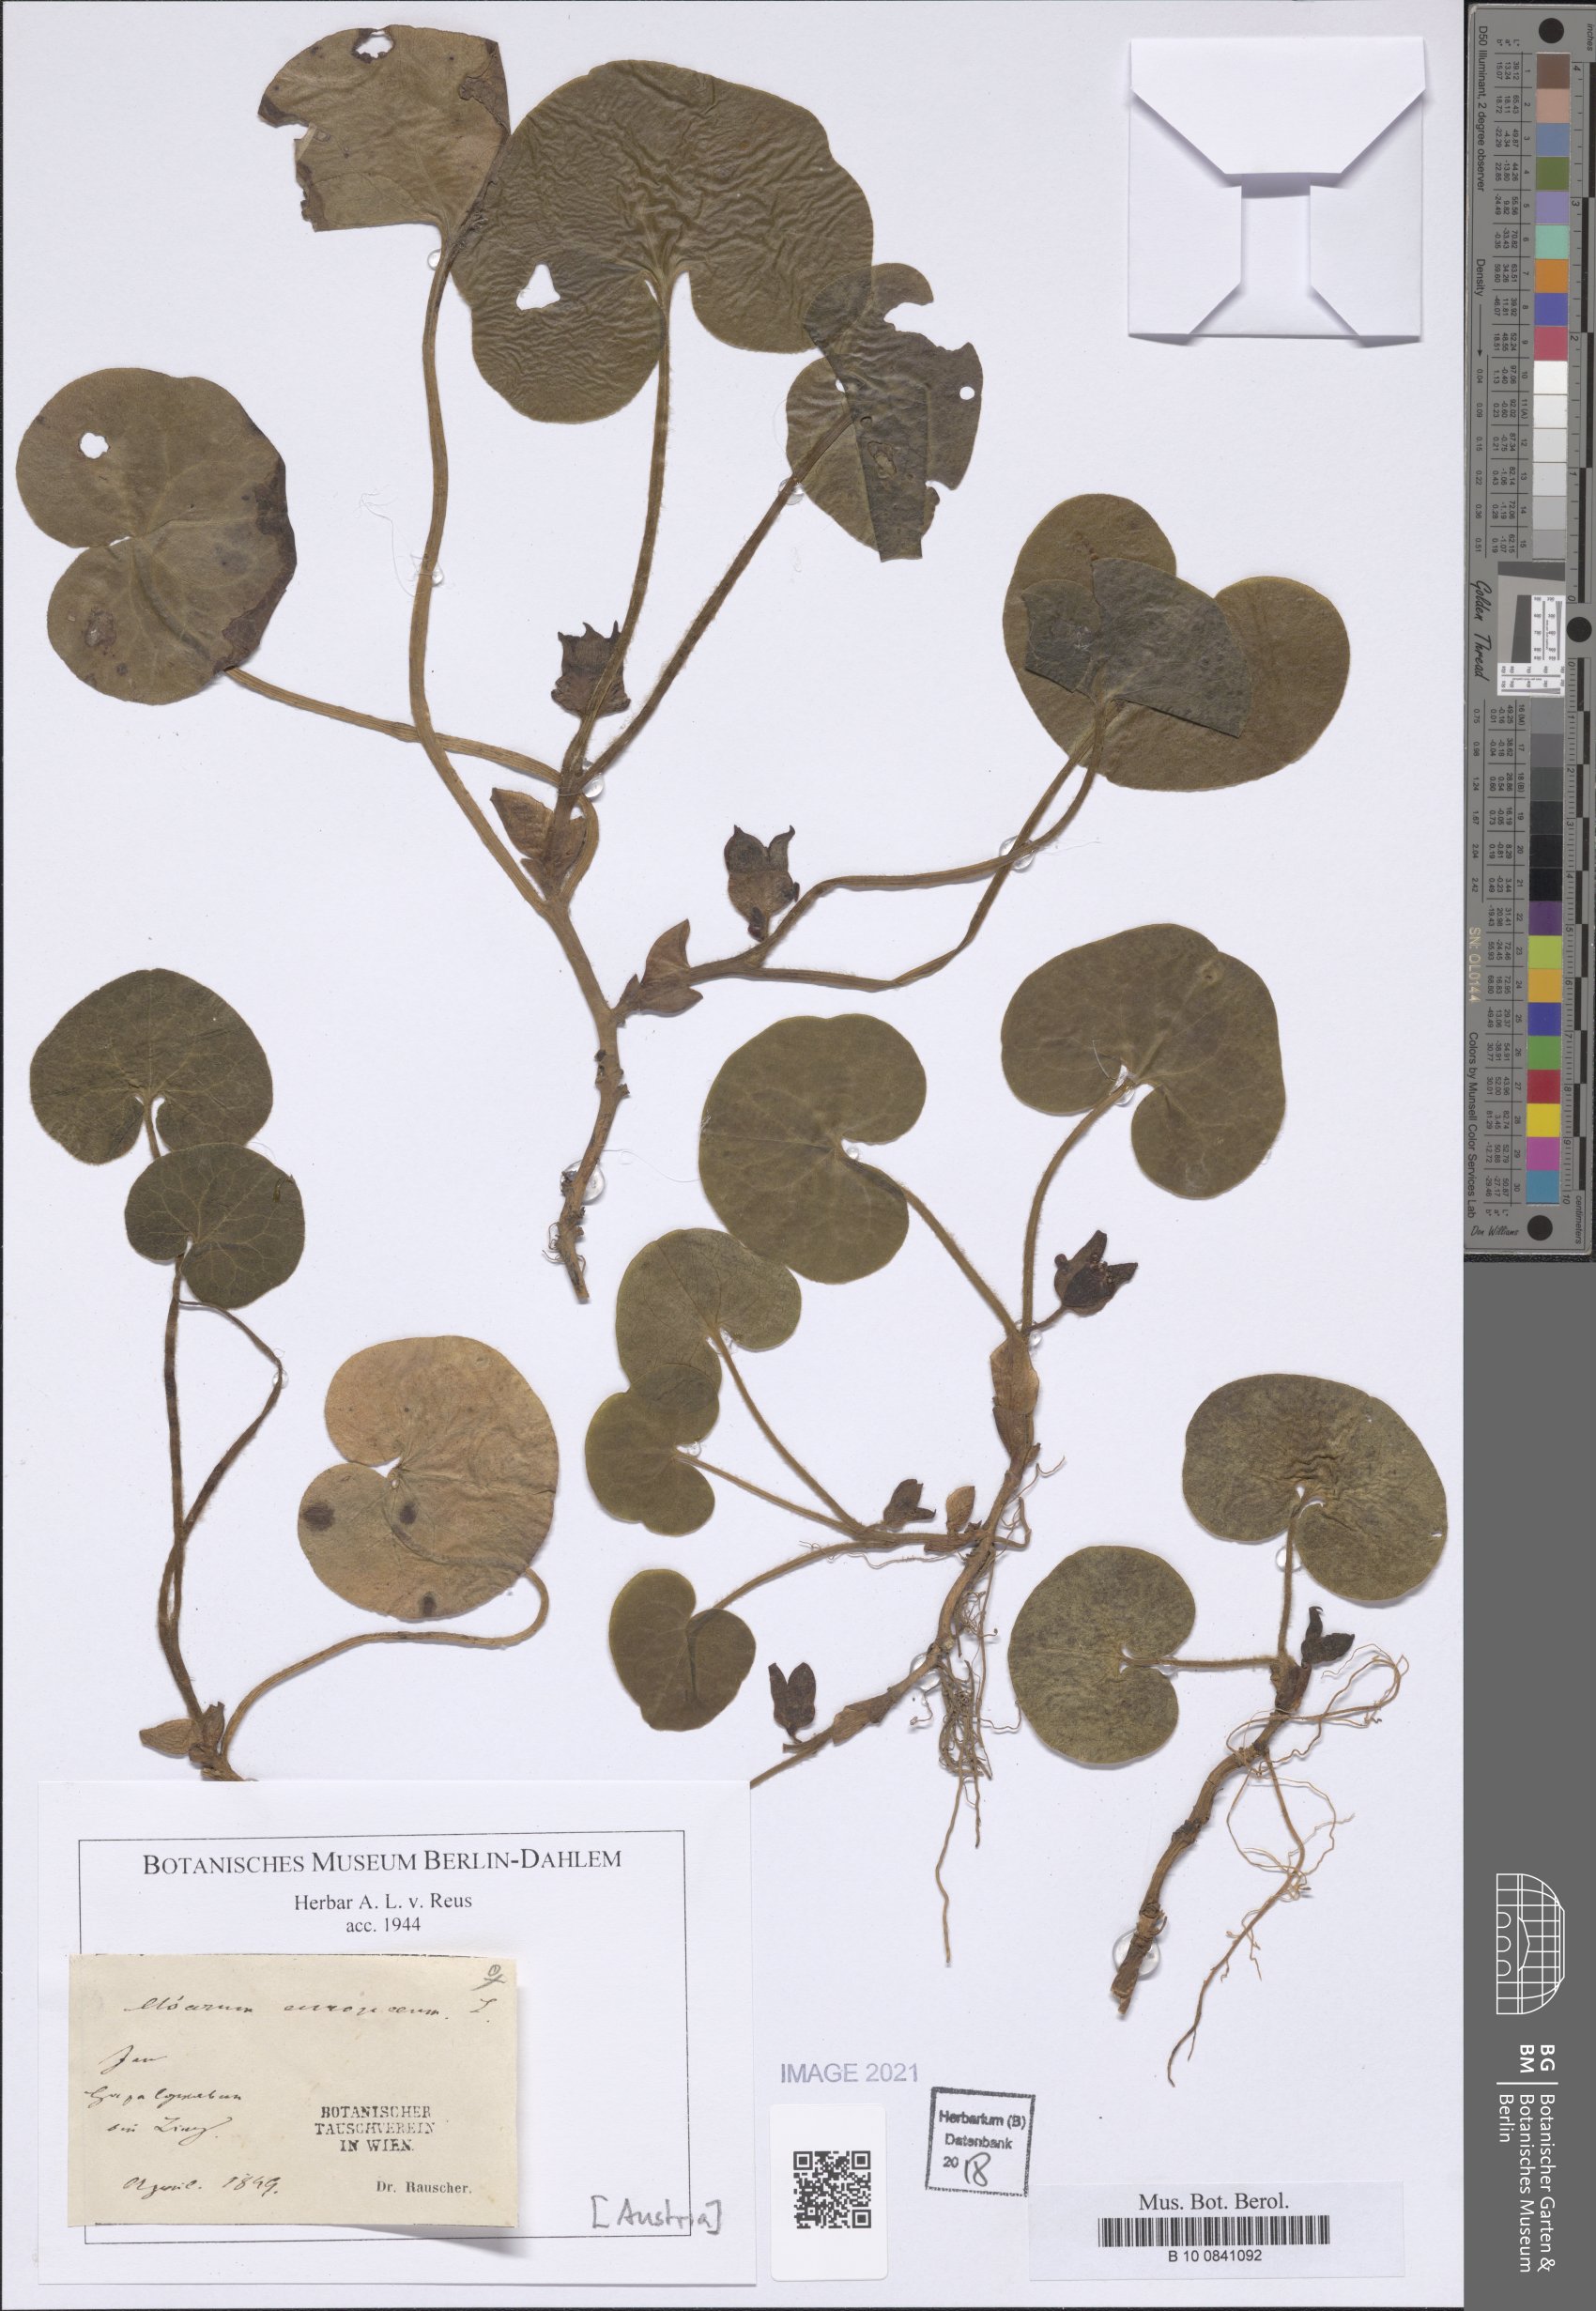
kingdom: Plantae
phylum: Tracheophyta
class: Magnoliopsida
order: Piperales
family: Aristolochiaceae
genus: Asarum
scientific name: Asarum europaeum
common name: Asarabacca
